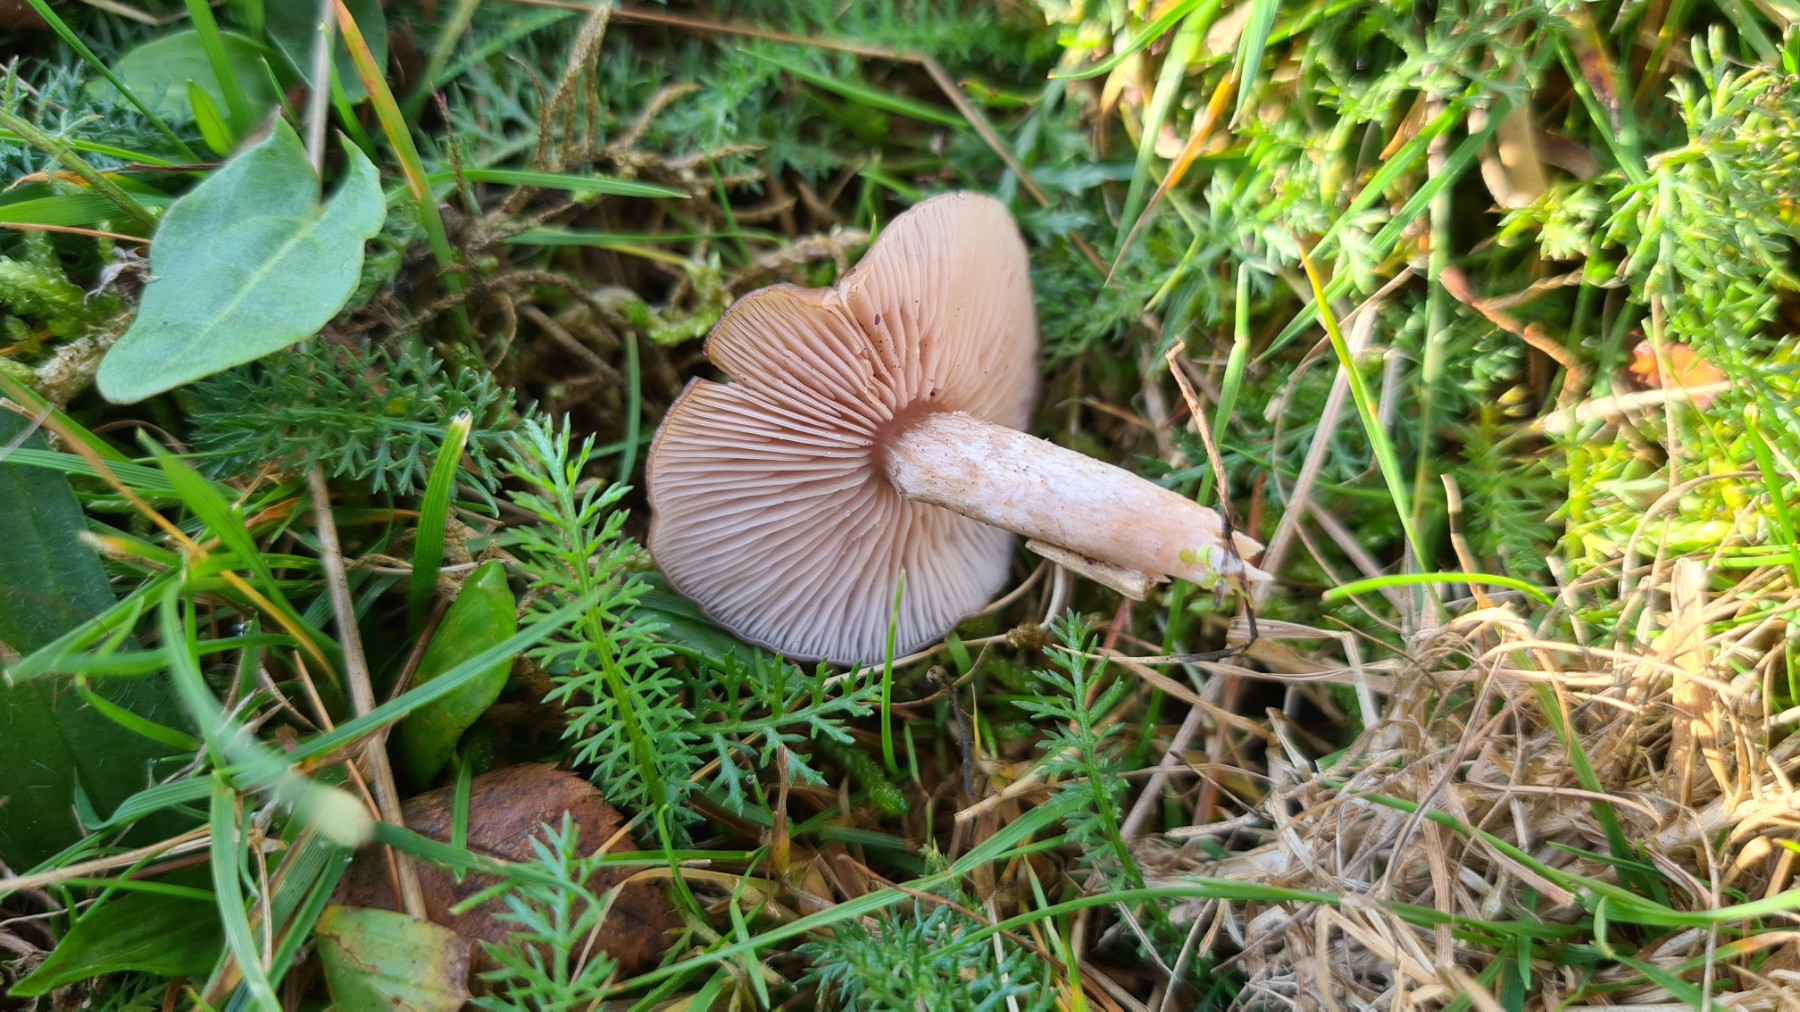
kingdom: Fungi
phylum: Basidiomycota
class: Agaricomycetes
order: Agaricales
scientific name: Agaricales
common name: champignonordenen
